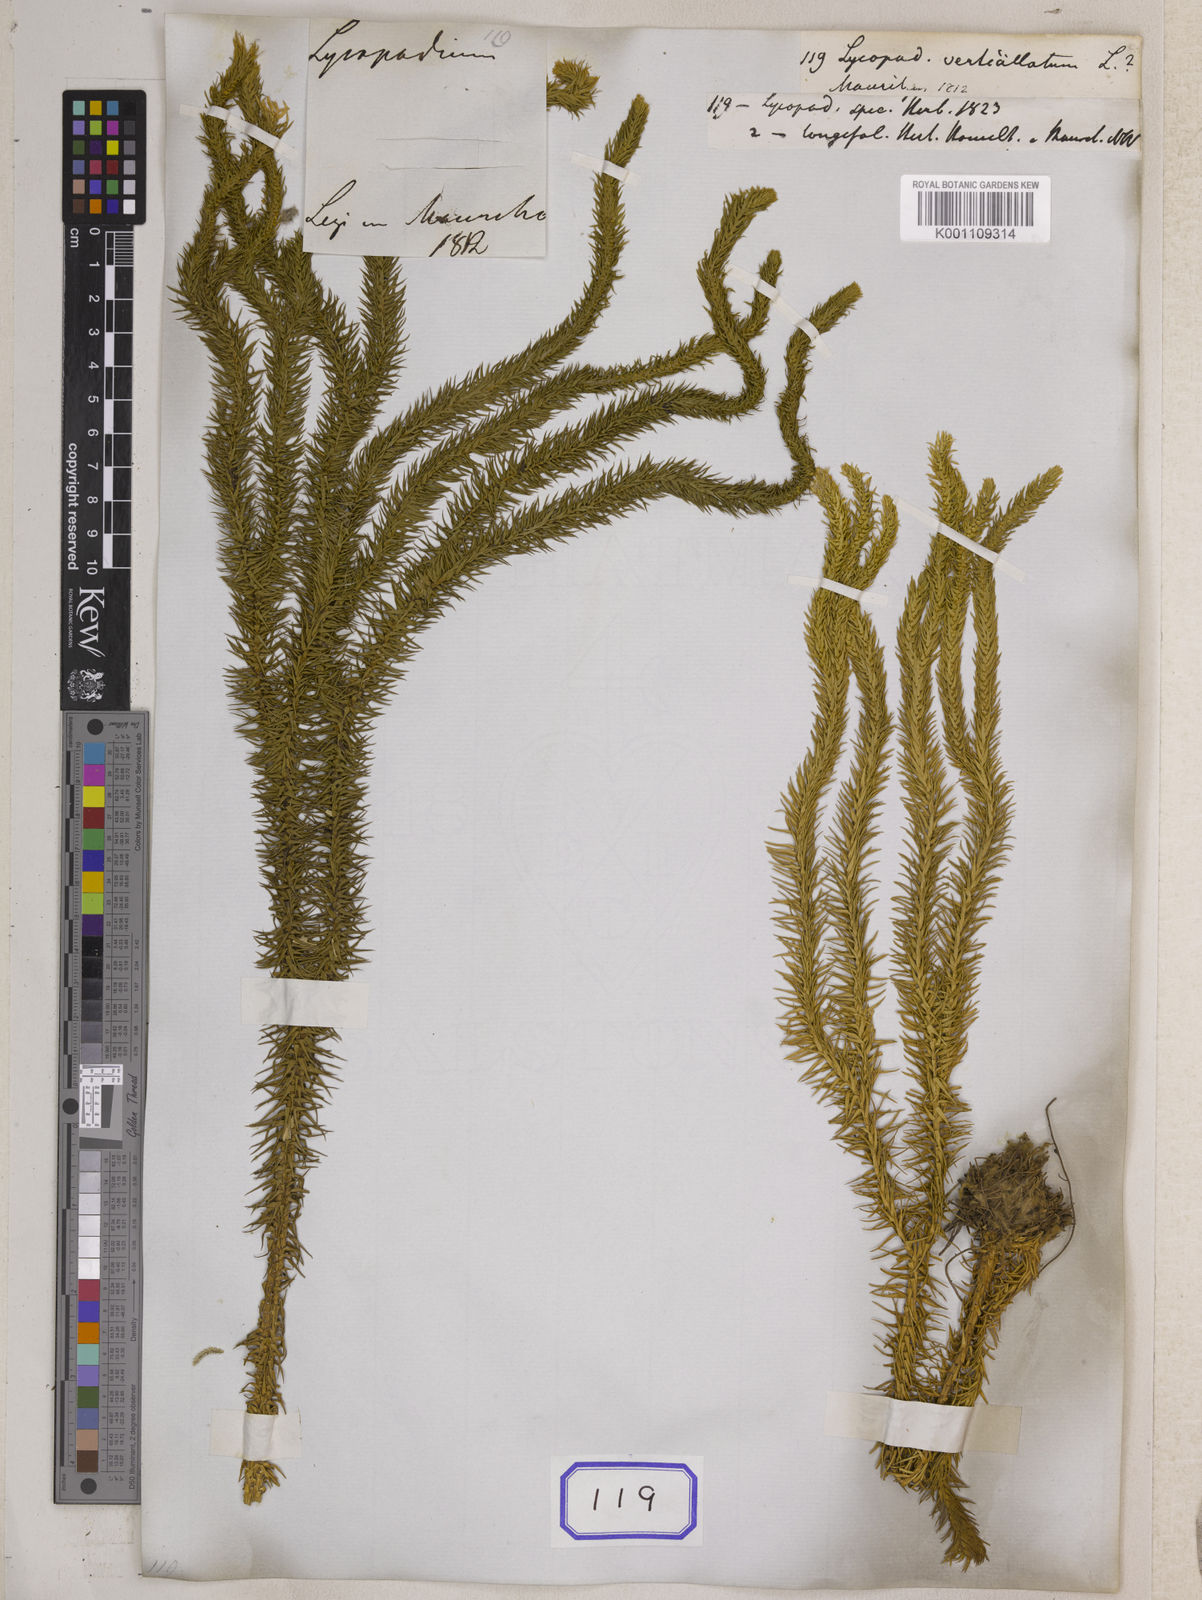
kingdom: Plantae
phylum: Tracheophyta
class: Lycopodiopsida
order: Lycopodiales
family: Lycopodiaceae
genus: Phlegmariurus
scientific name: Phlegmariurus verticillatus
